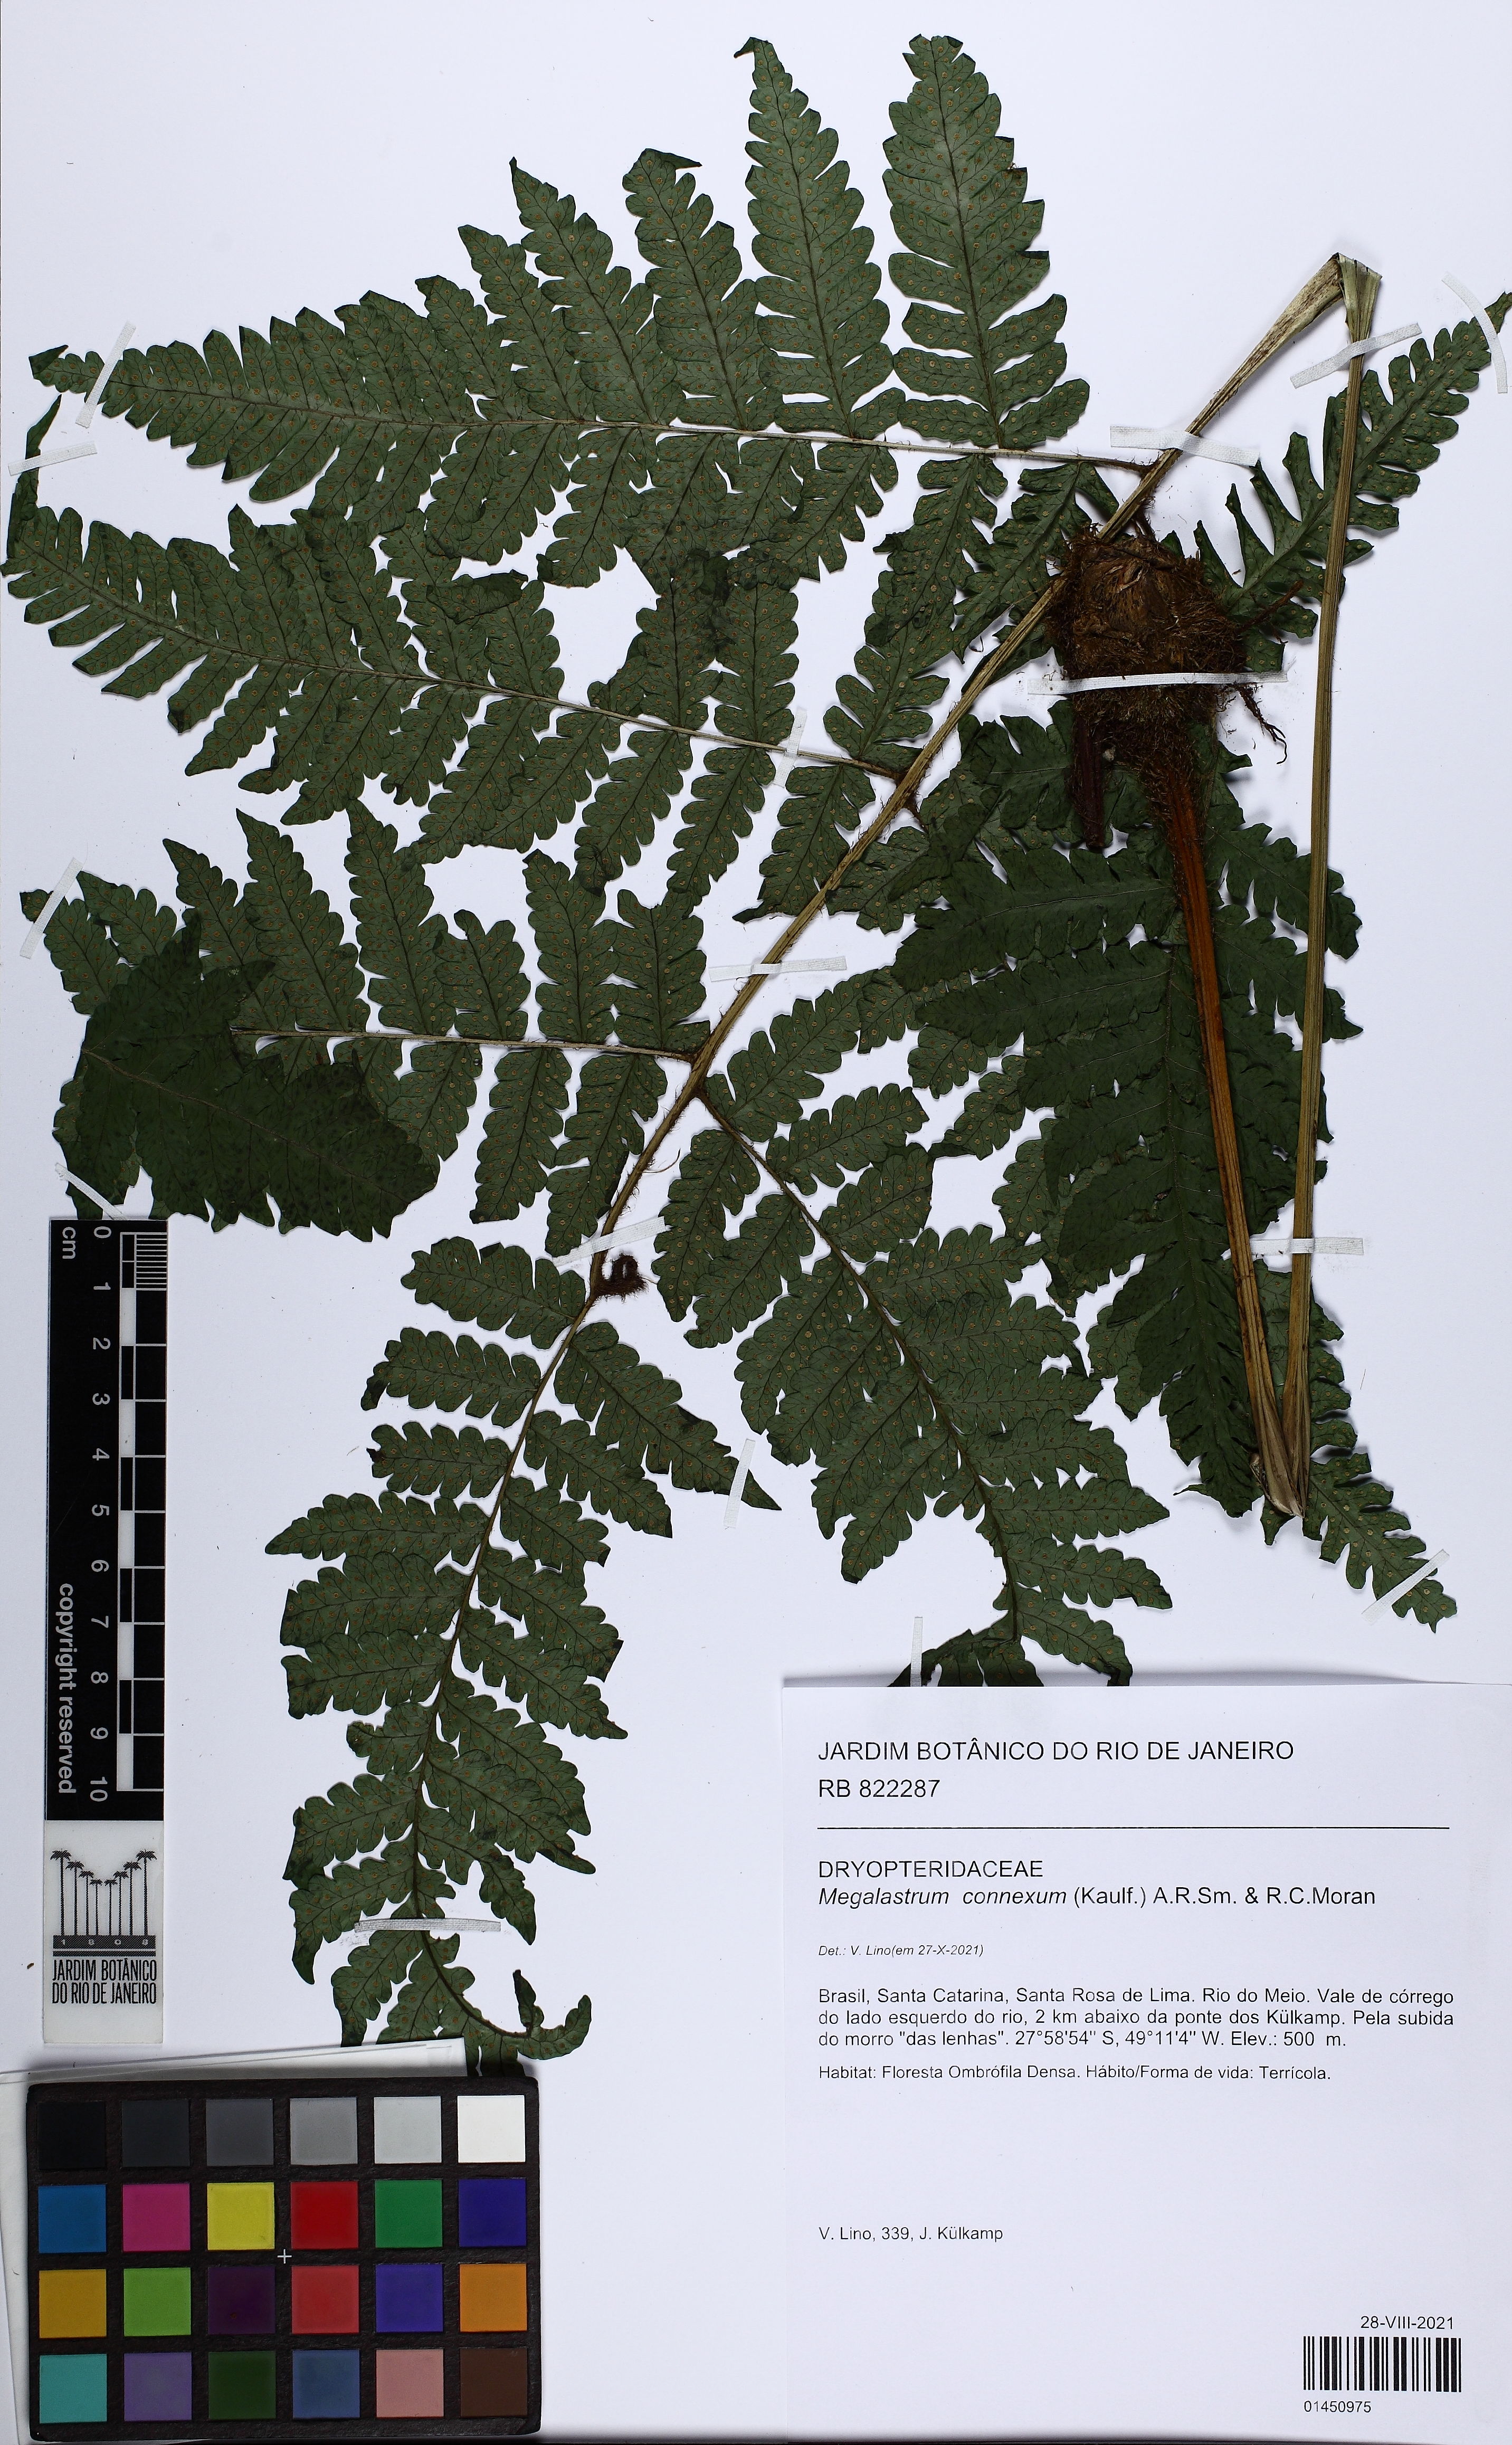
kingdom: Plantae
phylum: Tracheophyta
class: Polypodiopsida
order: Polypodiales
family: Dryopteridaceae
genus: Megalastrum
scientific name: Megalastrum connexum
